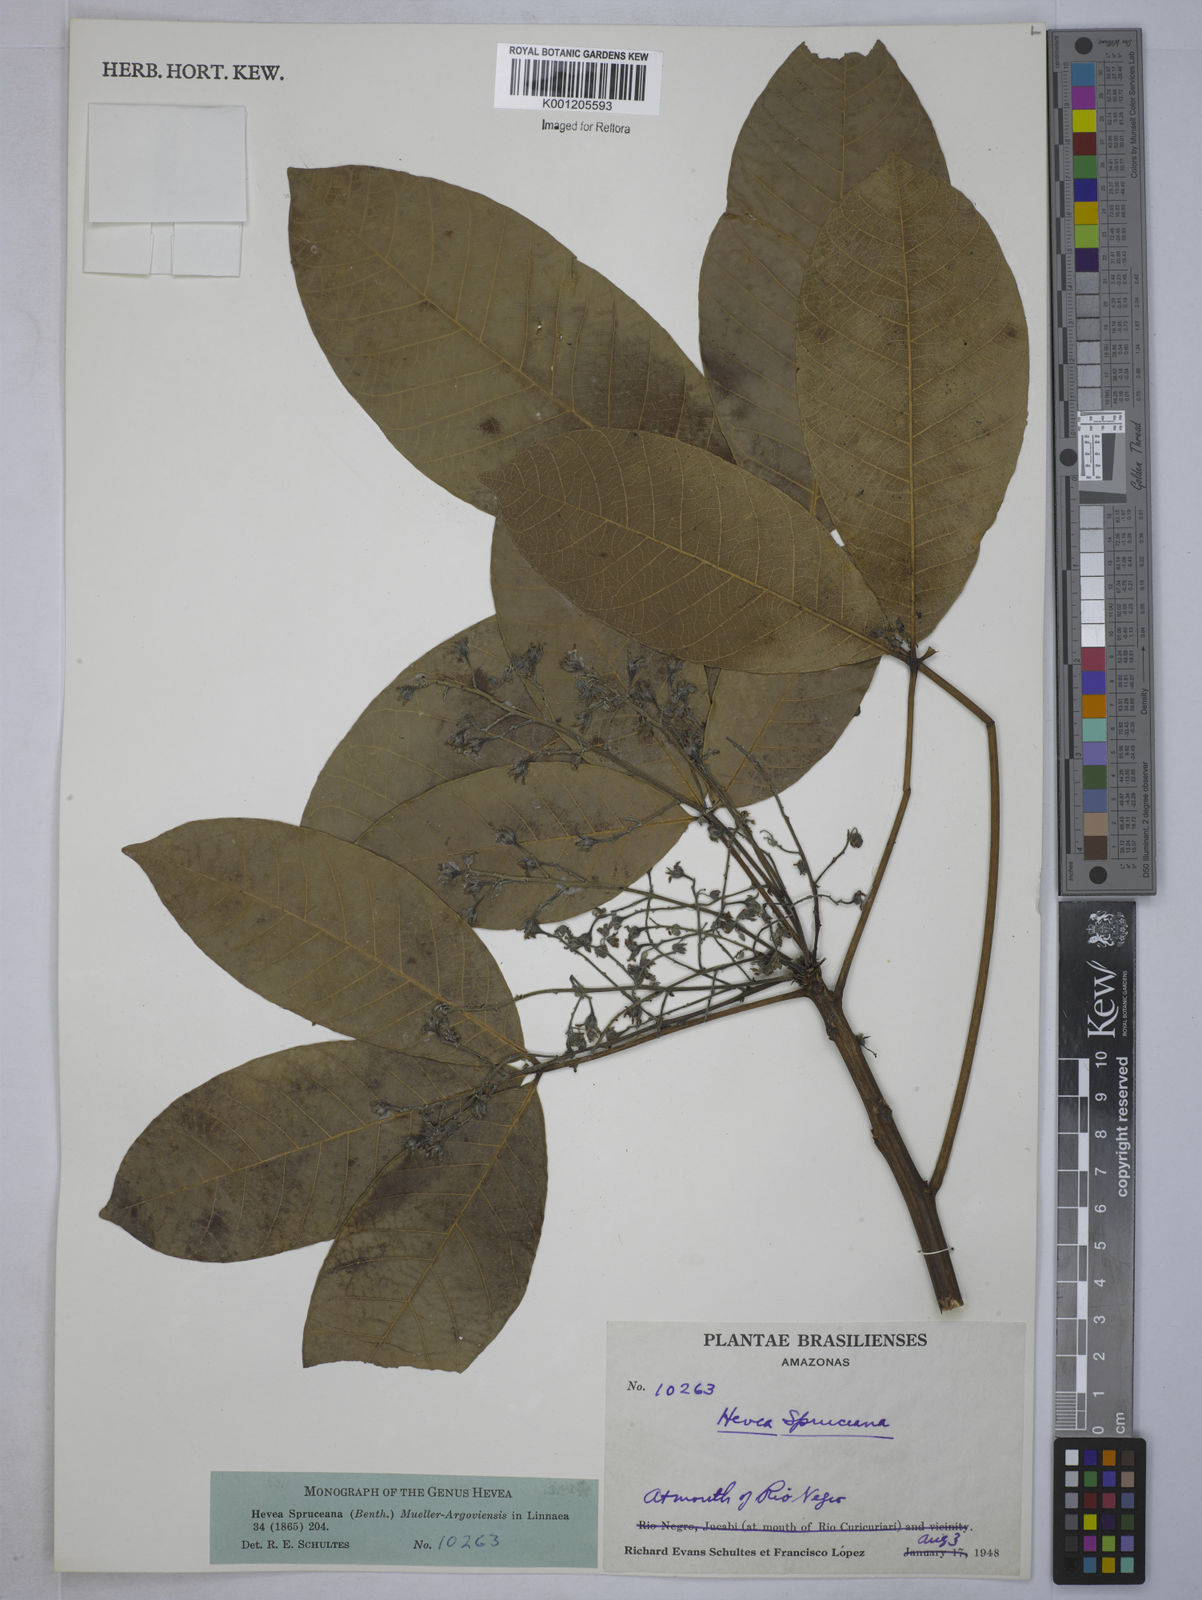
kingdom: Plantae
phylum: Tracheophyta
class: Magnoliopsida
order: Malpighiales
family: Euphorbiaceae
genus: Hevea
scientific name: Hevea
